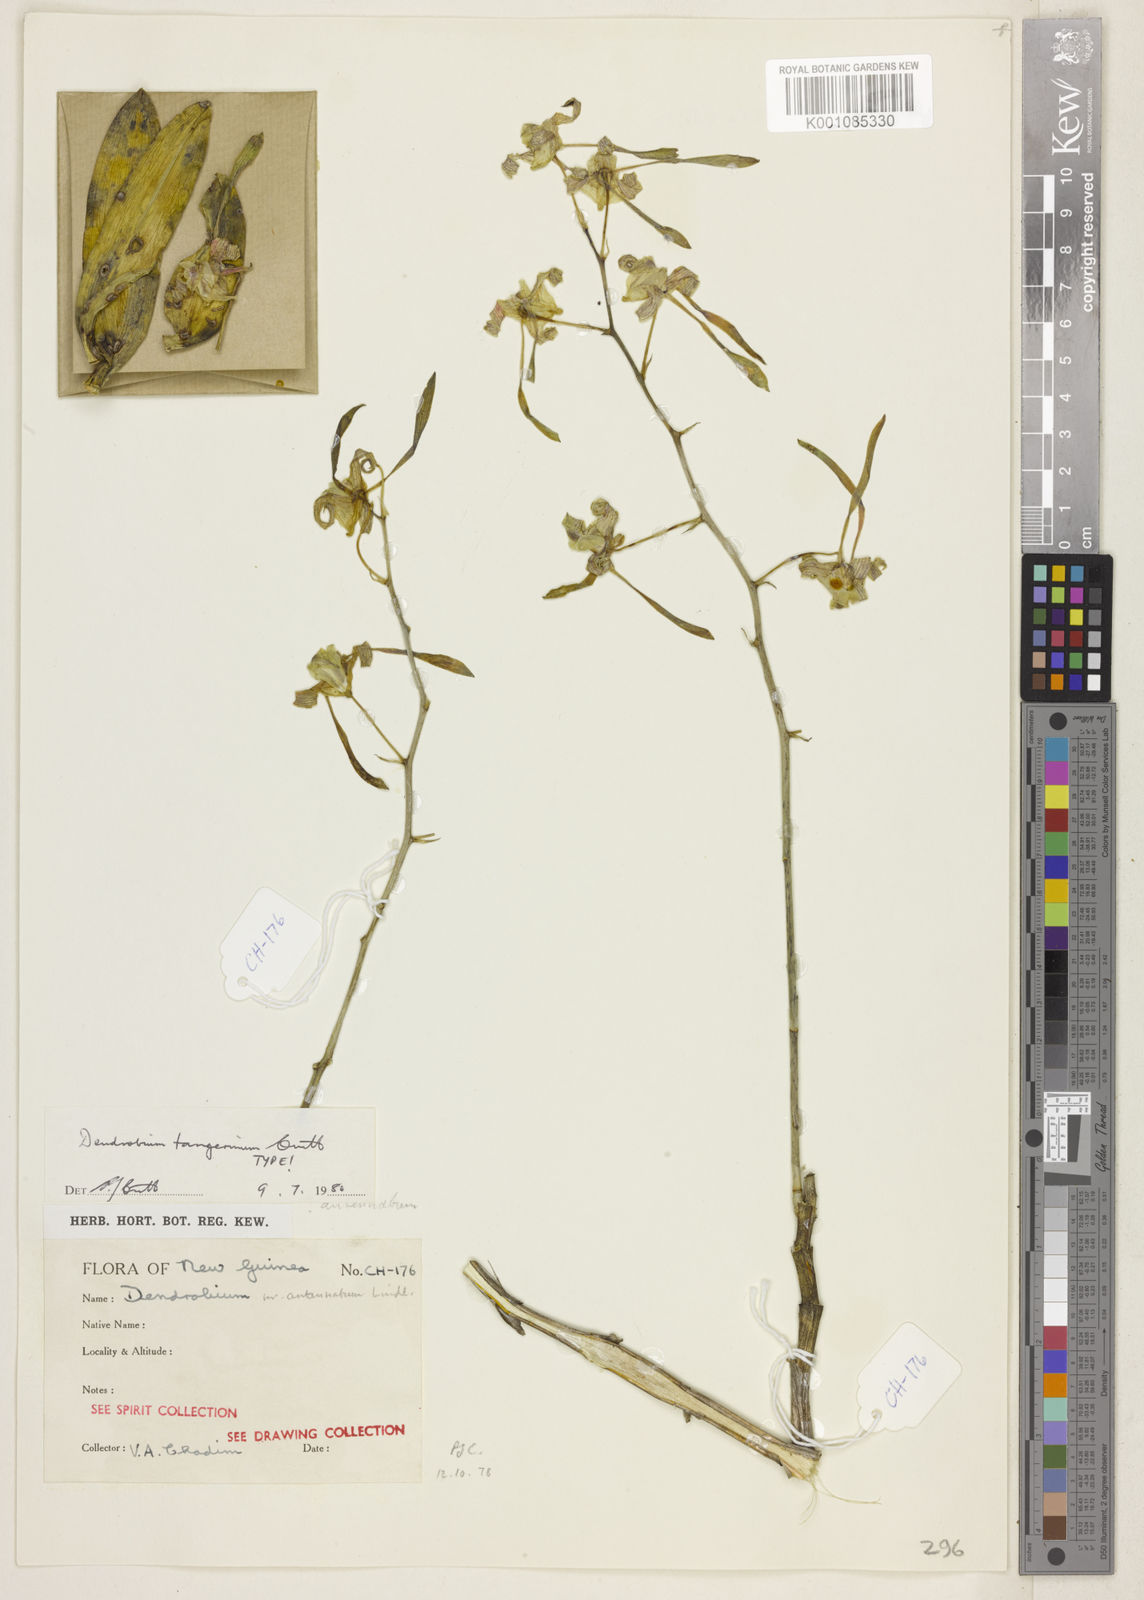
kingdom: Plantae
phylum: Tracheophyta
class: Liliopsida
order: Asparagales
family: Orchidaceae
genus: Dendrobium
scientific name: Dendrobium tangerinum
